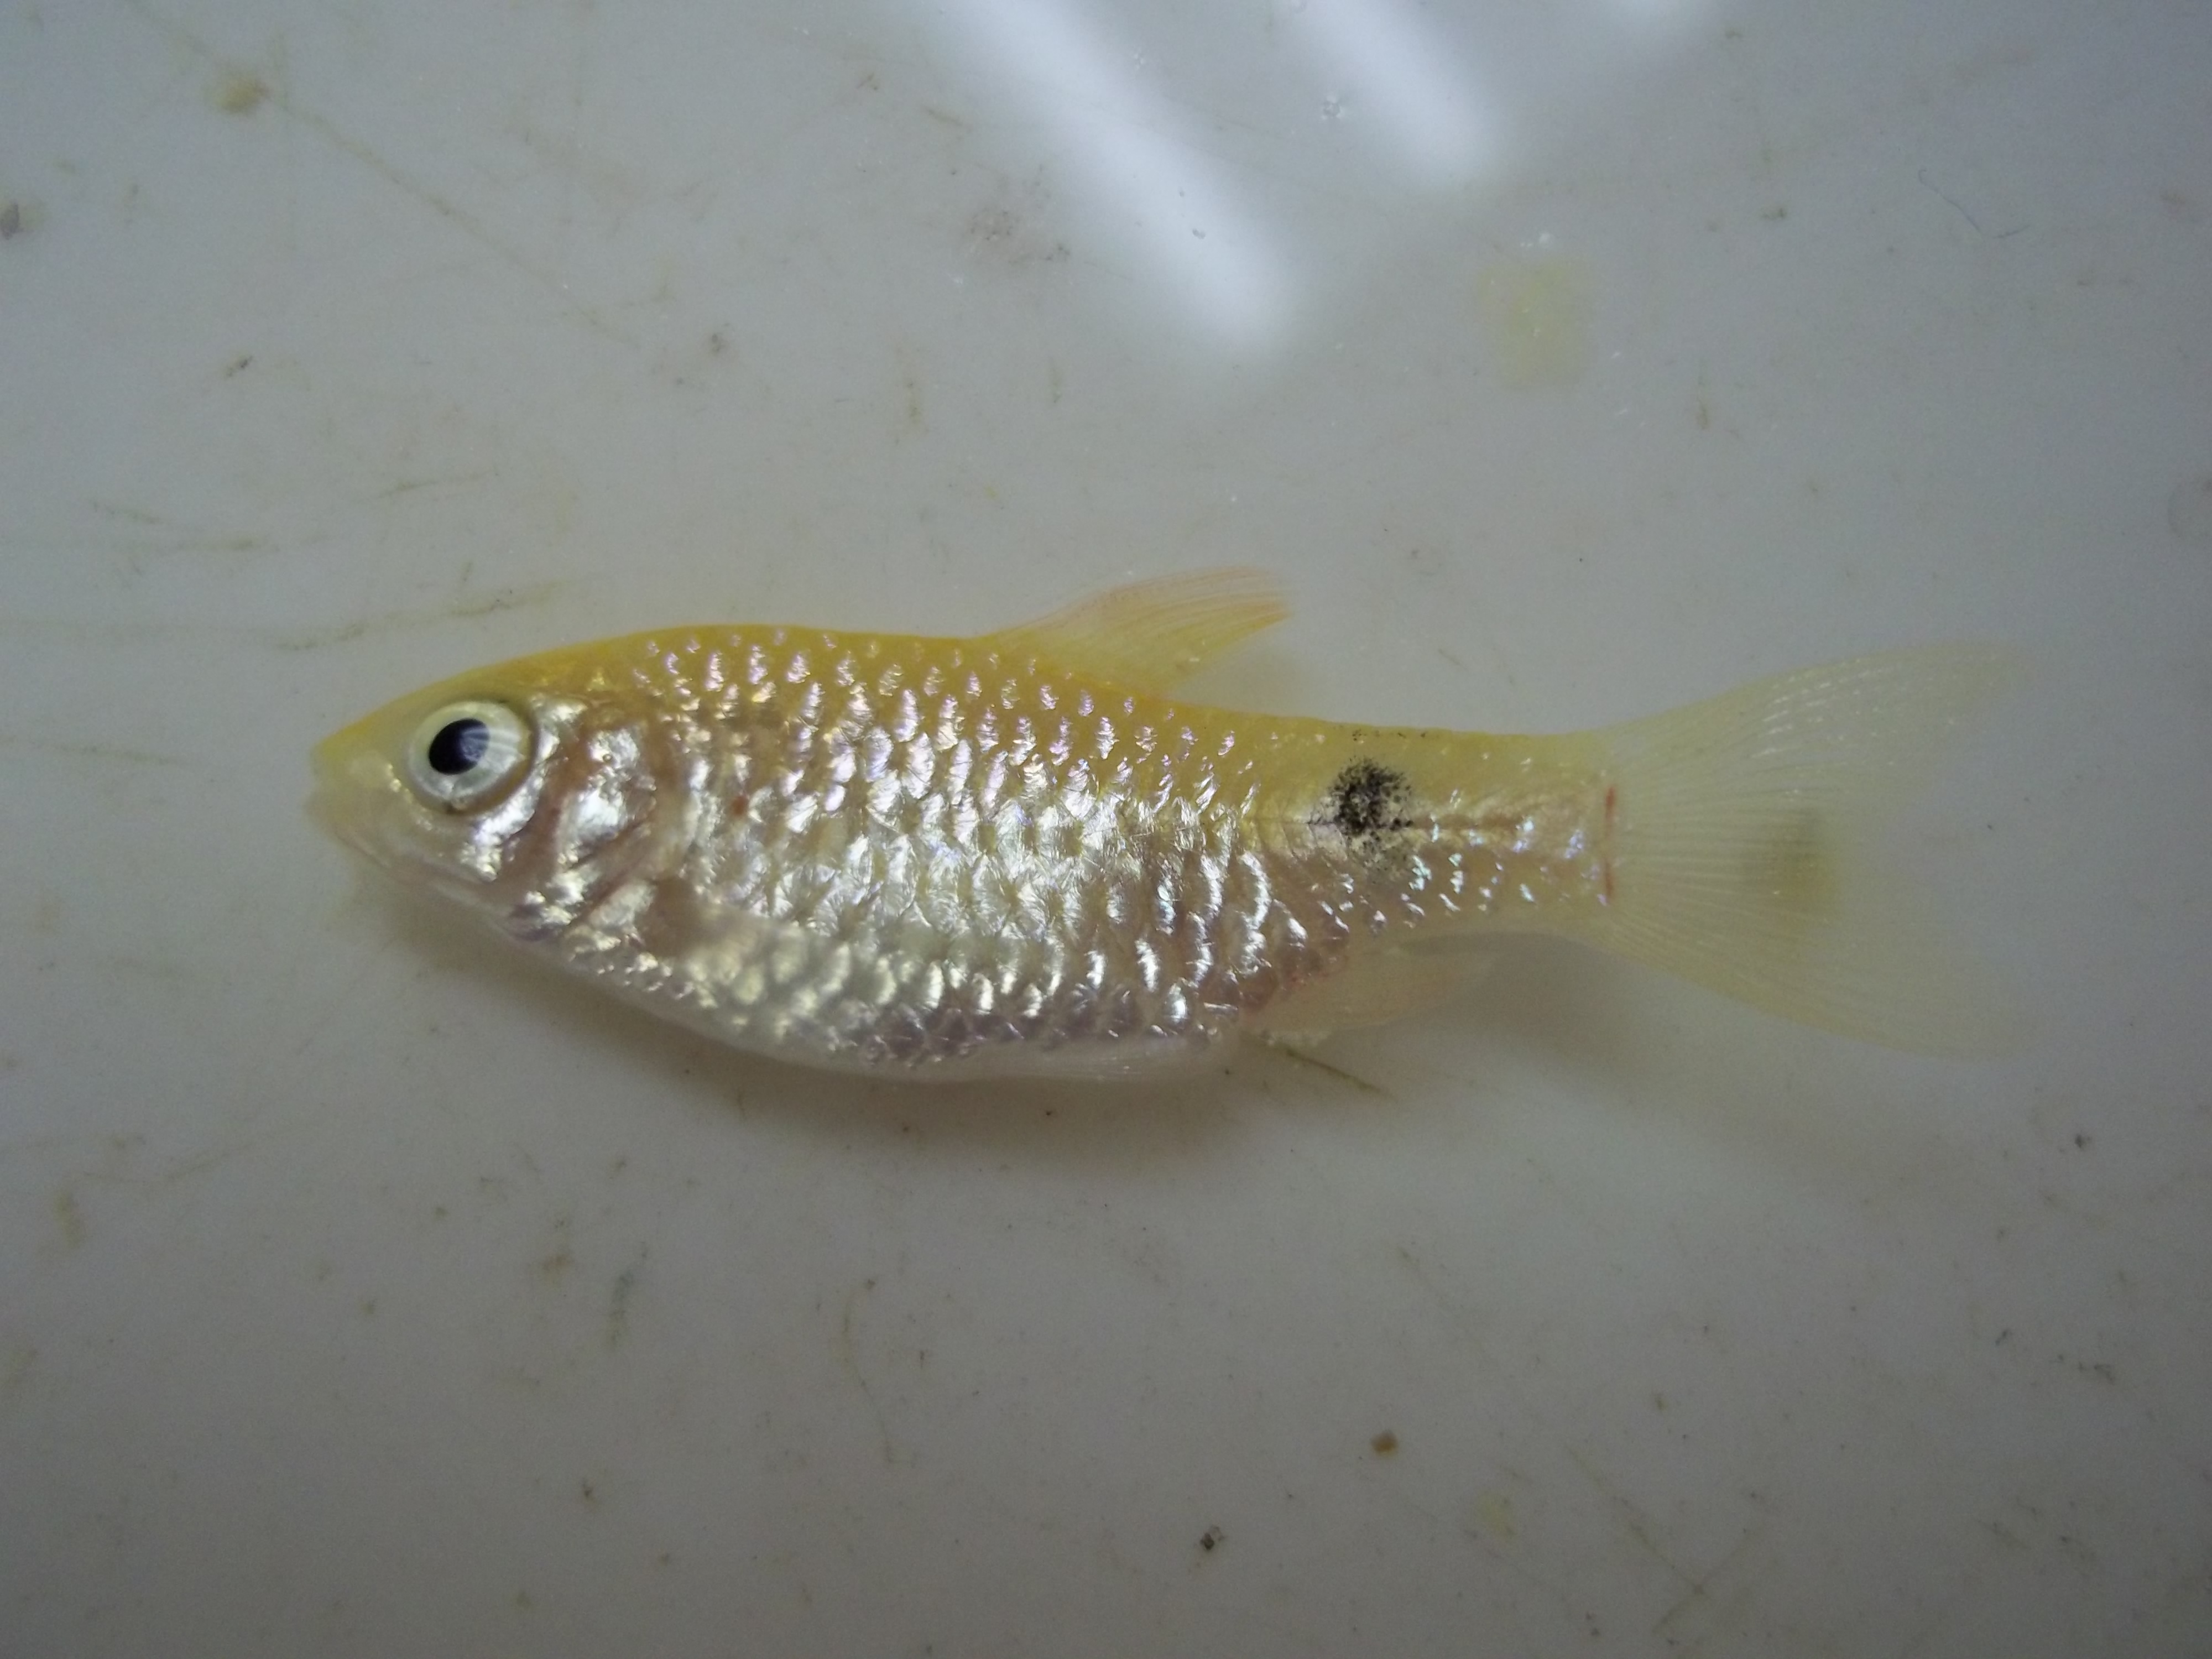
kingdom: Animalia
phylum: Chordata
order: Cypriniformes
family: Cyprinidae
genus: Pethia
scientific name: Pethia conchonius
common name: Rosy barb
